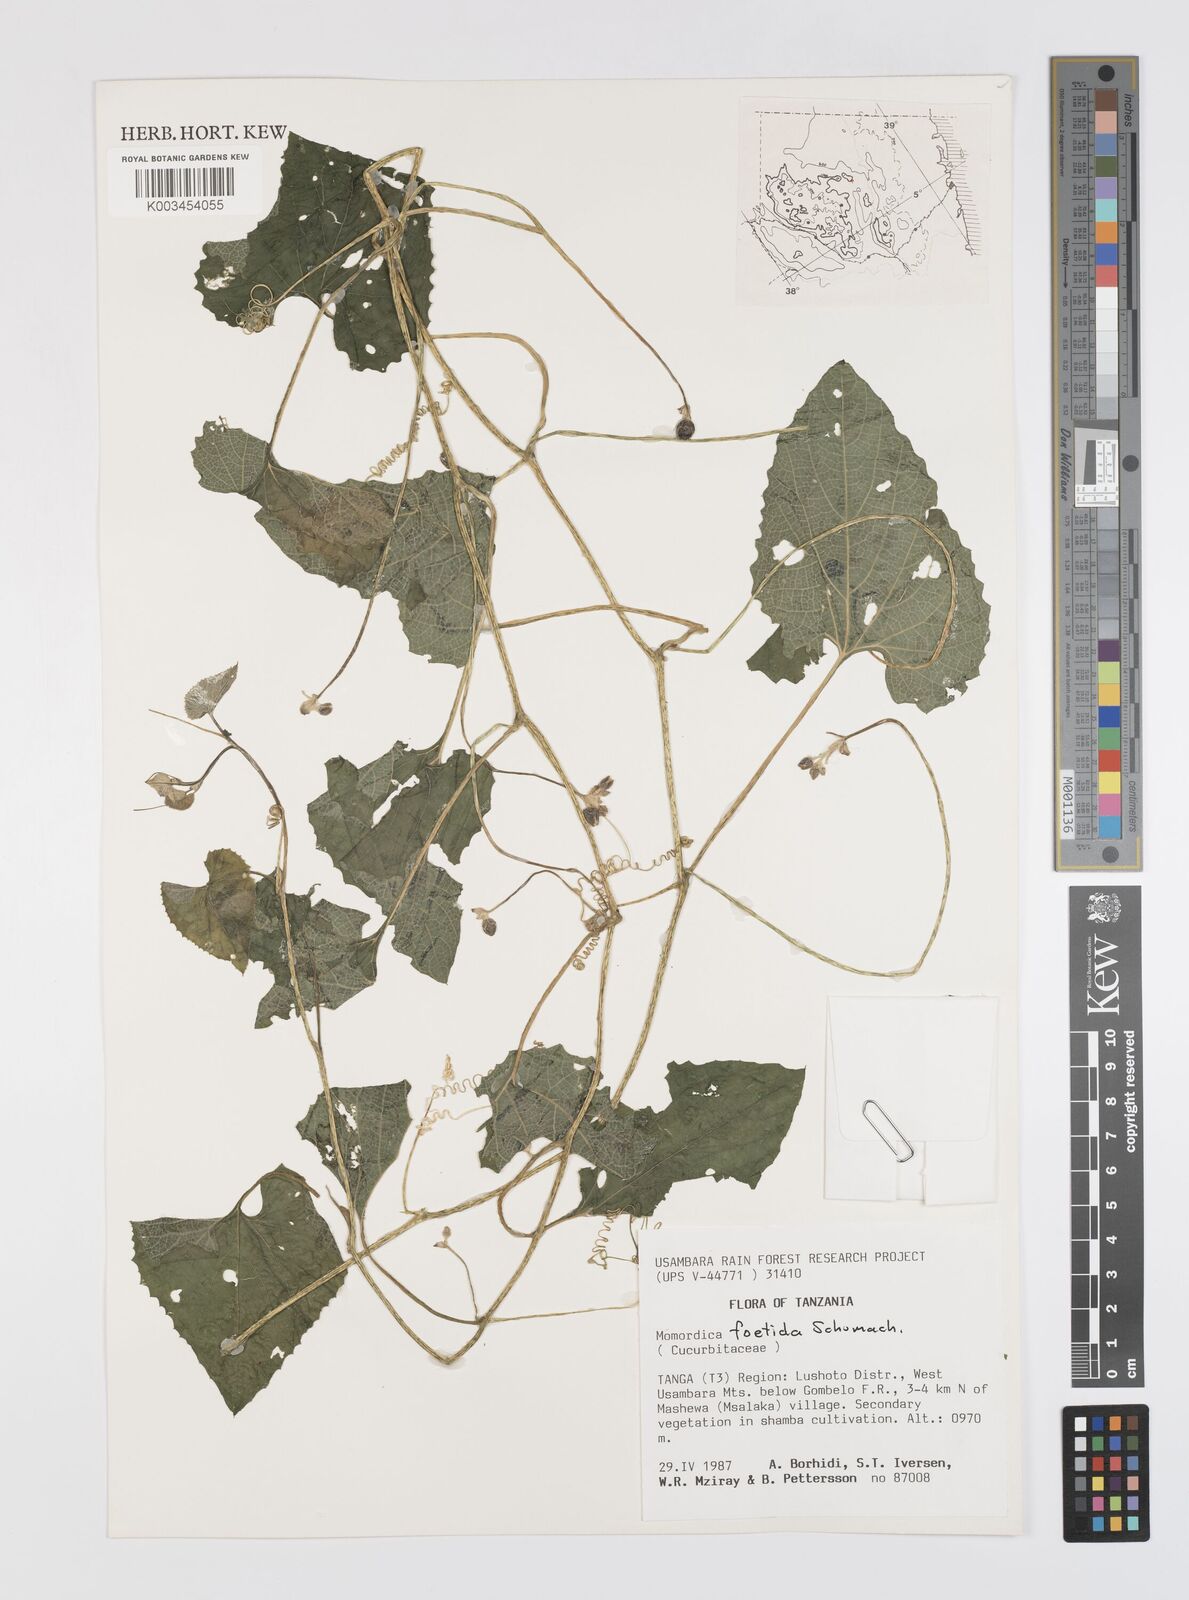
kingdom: Plantae
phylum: Tracheophyta
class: Magnoliopsida
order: Cucurbitales
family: Cucurbitaceae
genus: Momordica
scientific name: Momordica foetida
